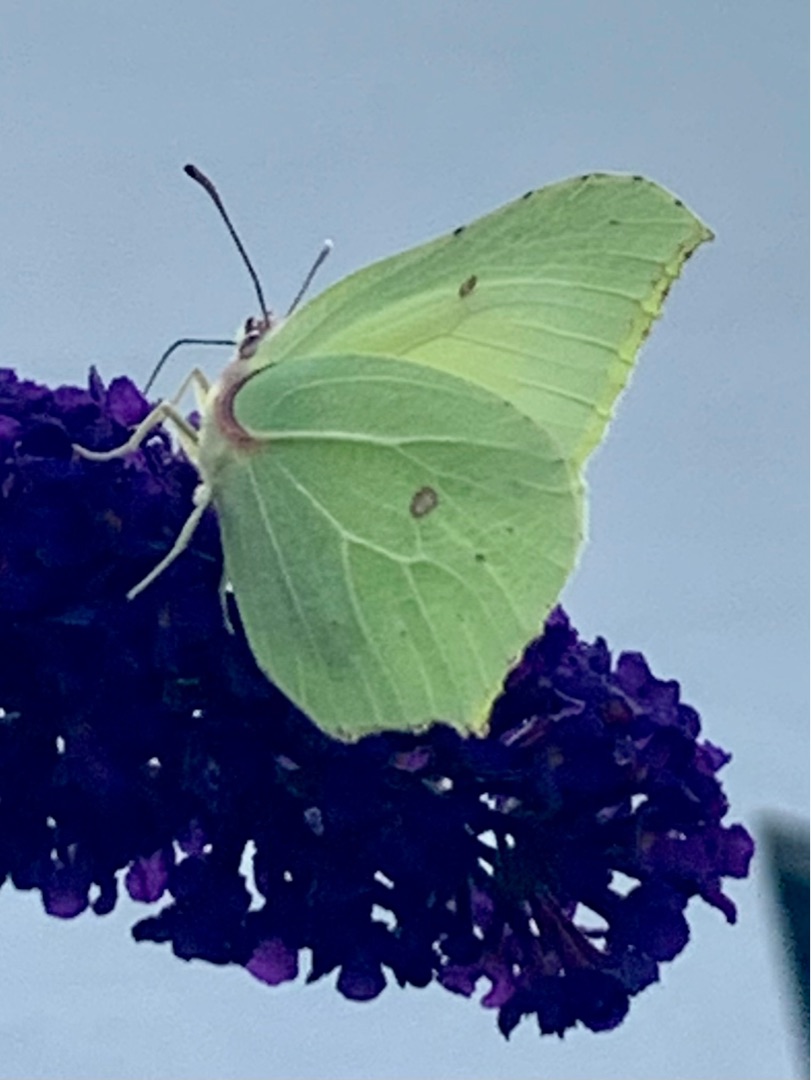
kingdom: Animalia
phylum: Arthropoda
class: Insecta
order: Lepidoptera
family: Pieridae
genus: Gonepteryx
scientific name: Gonepteryx rhamni
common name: Citronsommerfugl
